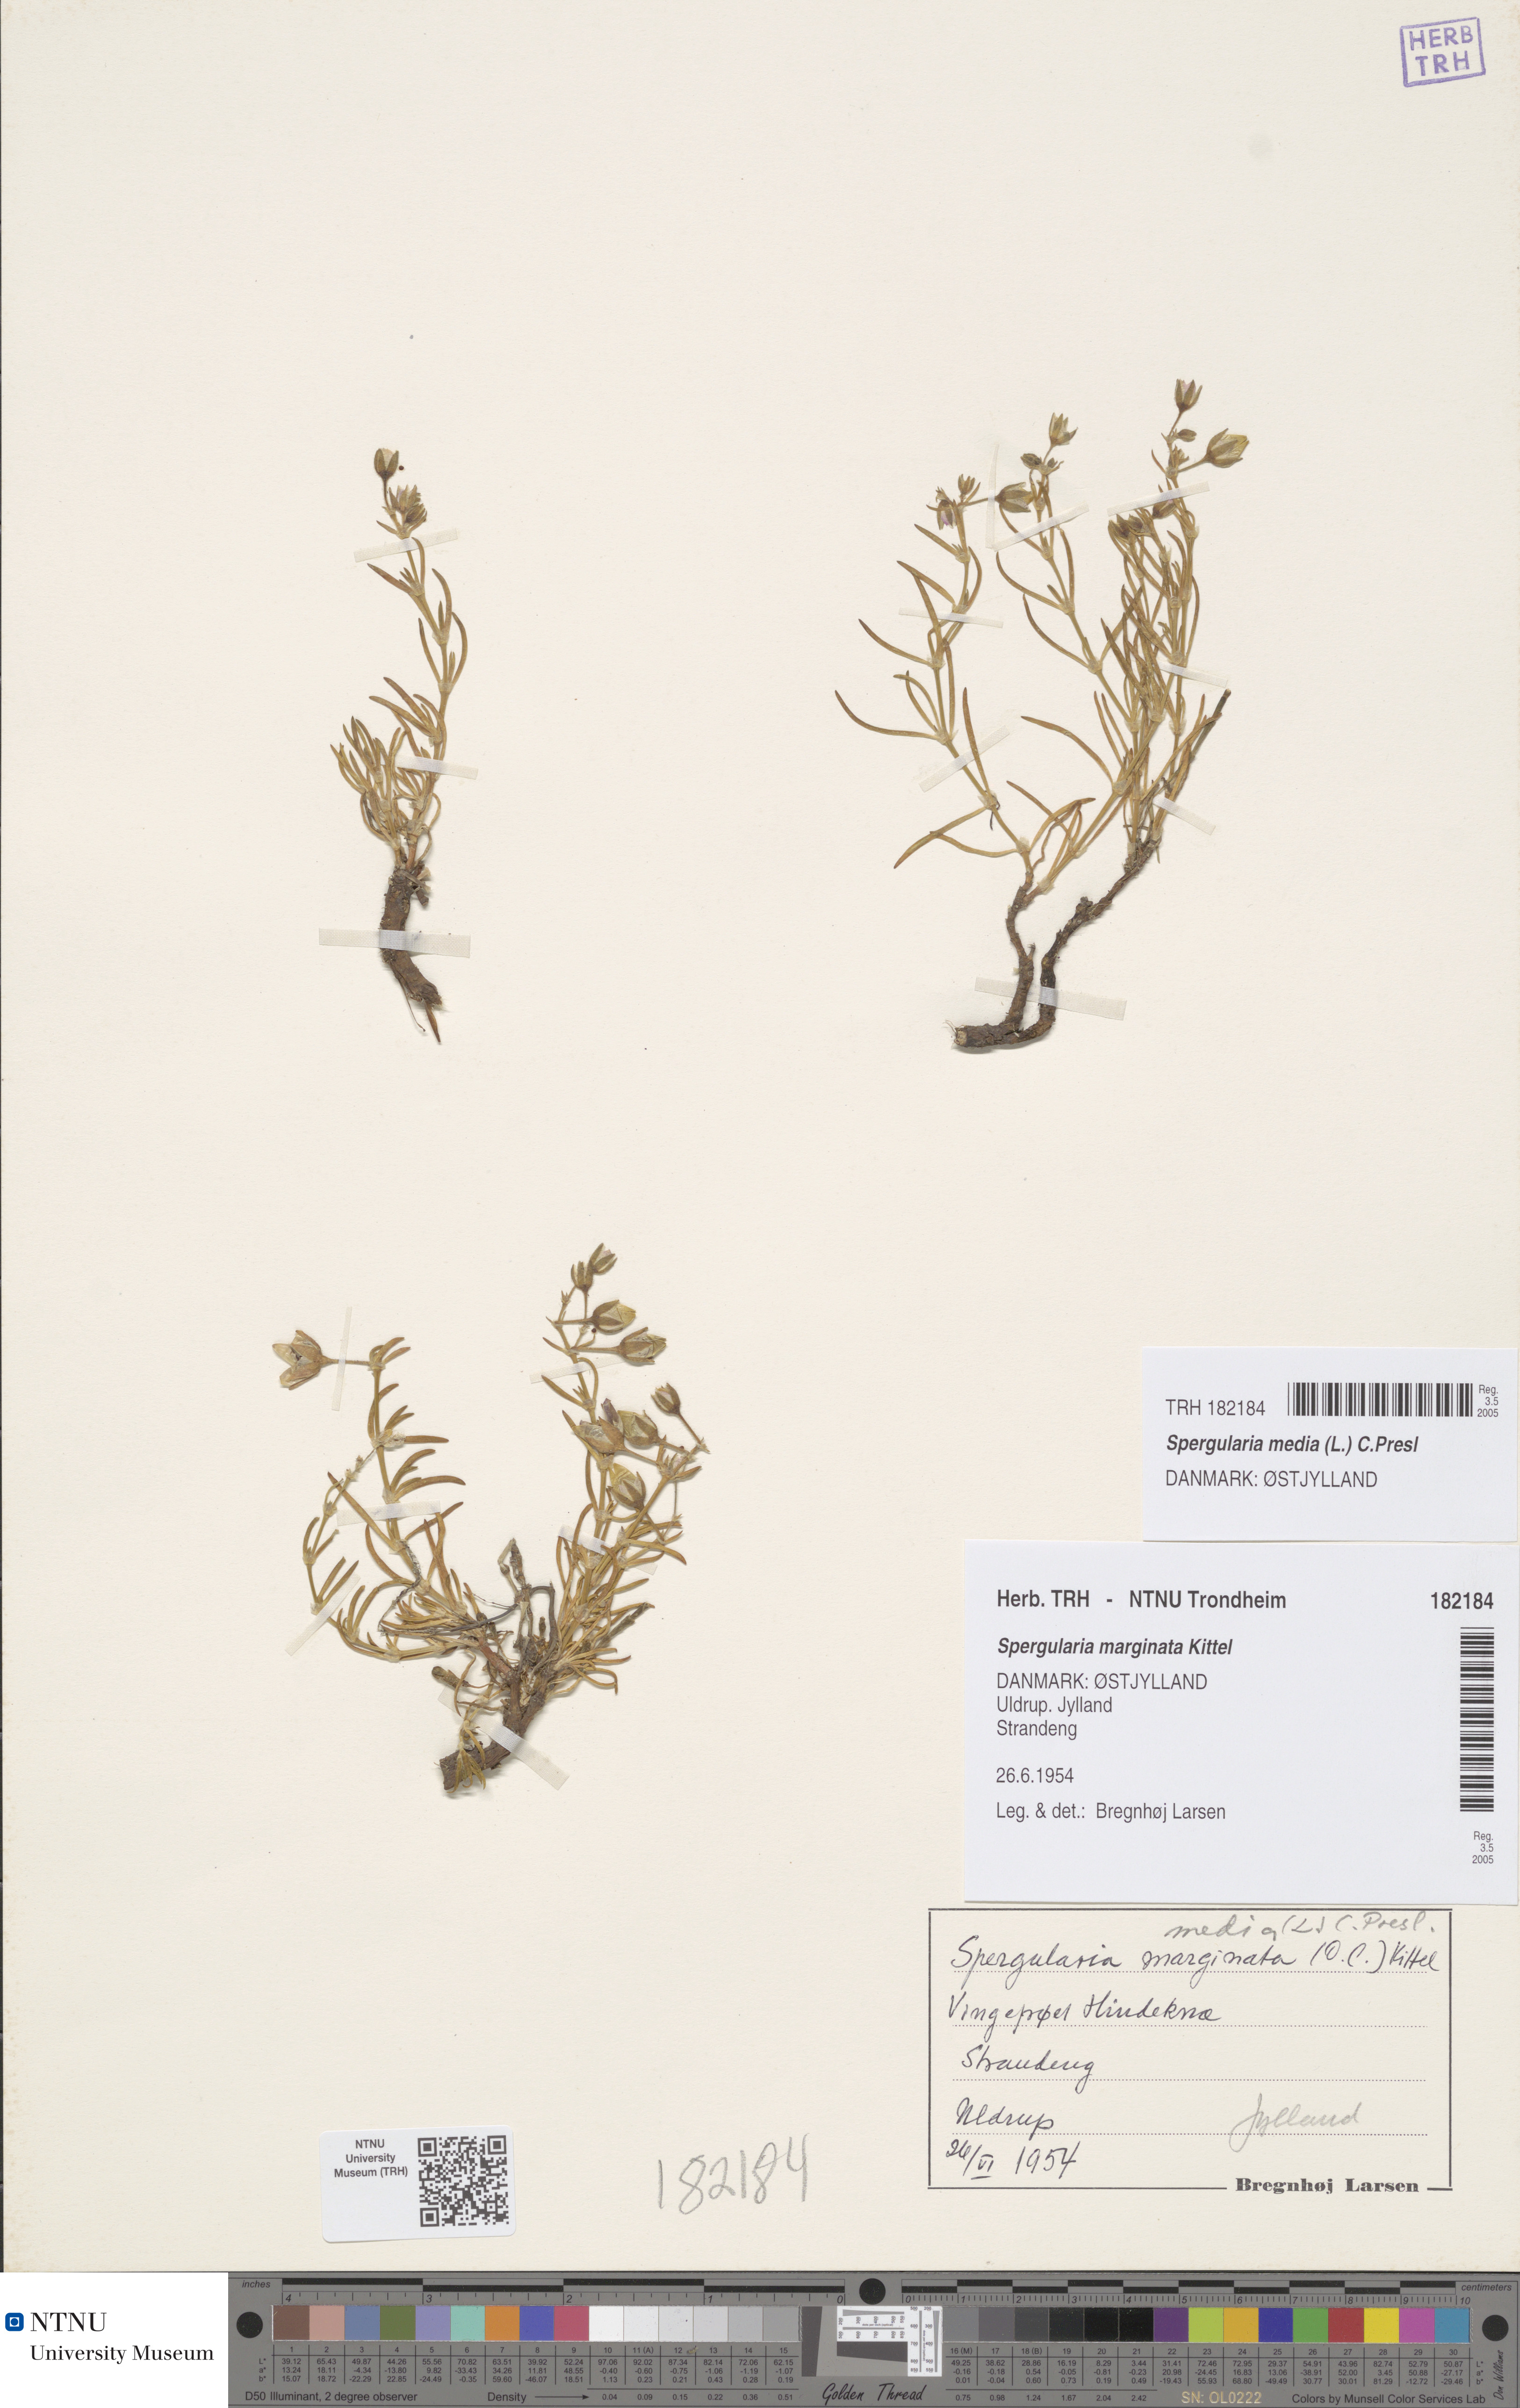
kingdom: Plantae
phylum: Tracheophyta
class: Magnoliopsida
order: Caryophyllales
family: Caryophyllaceae
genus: Spergularia
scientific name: Spergularia media
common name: Greater sea-spurrey
